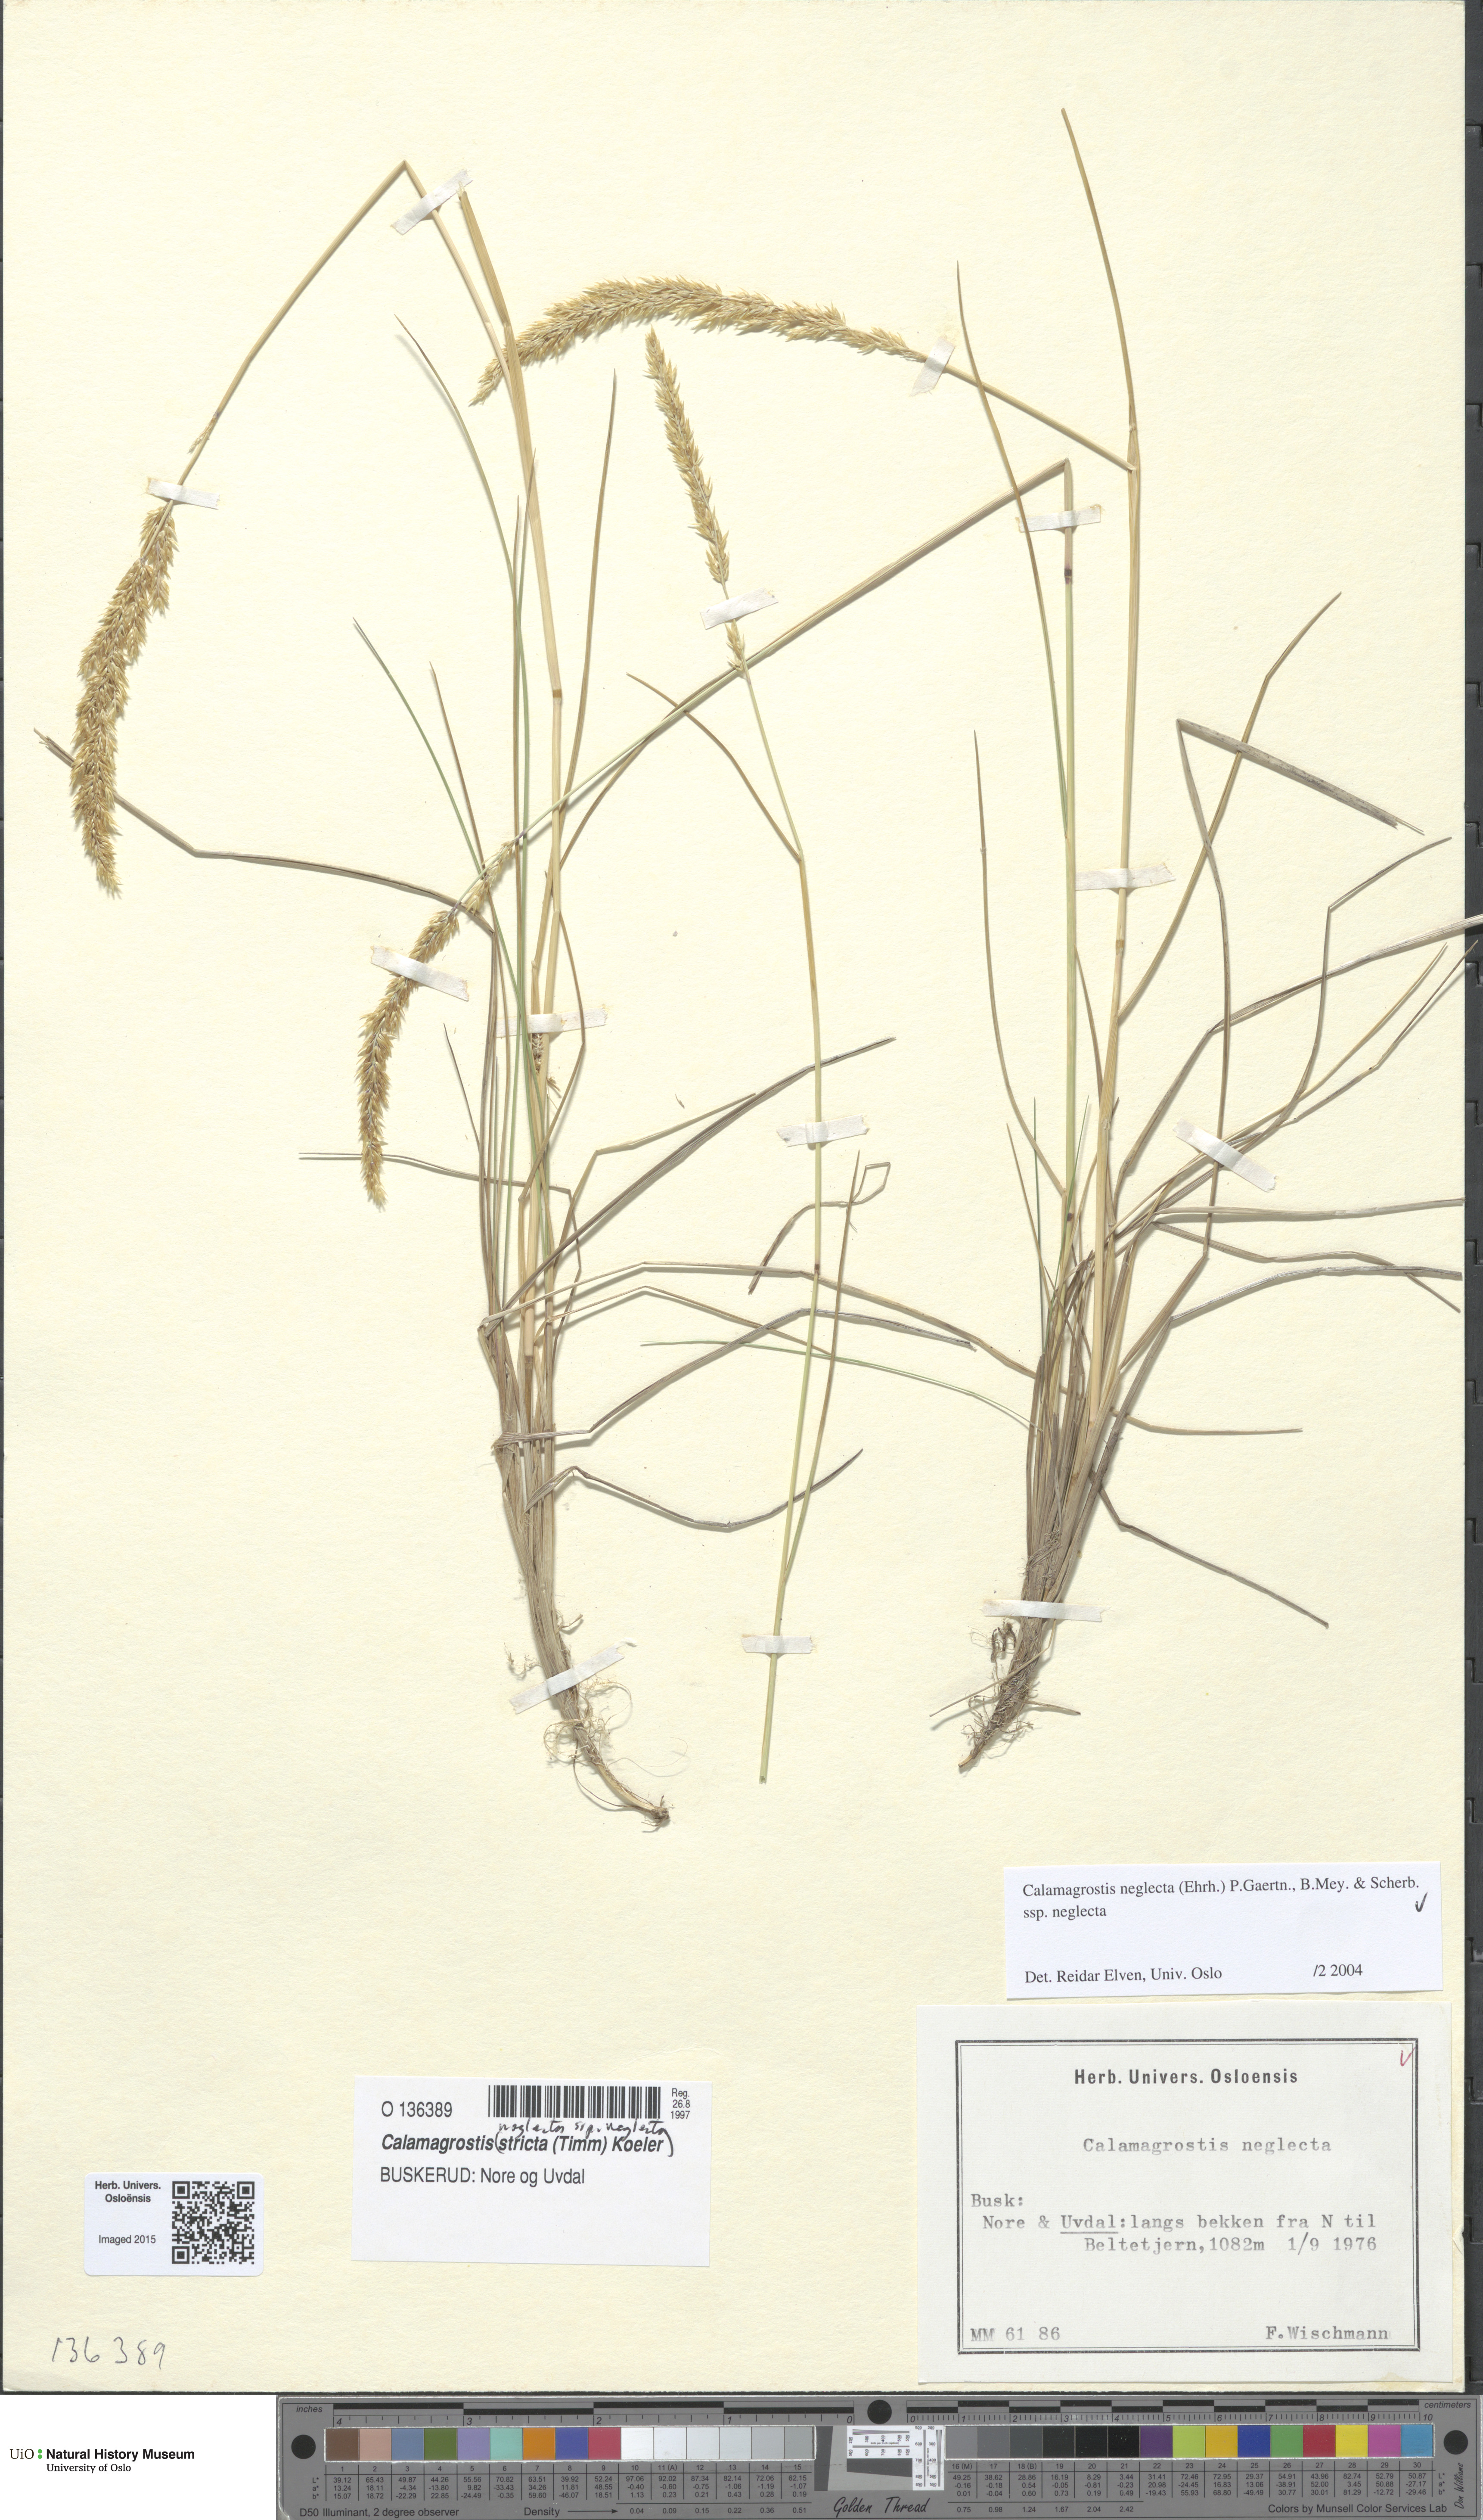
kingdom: Plantae
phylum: Tracheophyta
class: Liliopsida
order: Poales
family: Poaceae
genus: Achnatherum
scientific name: Achnatherum calamagrostis
